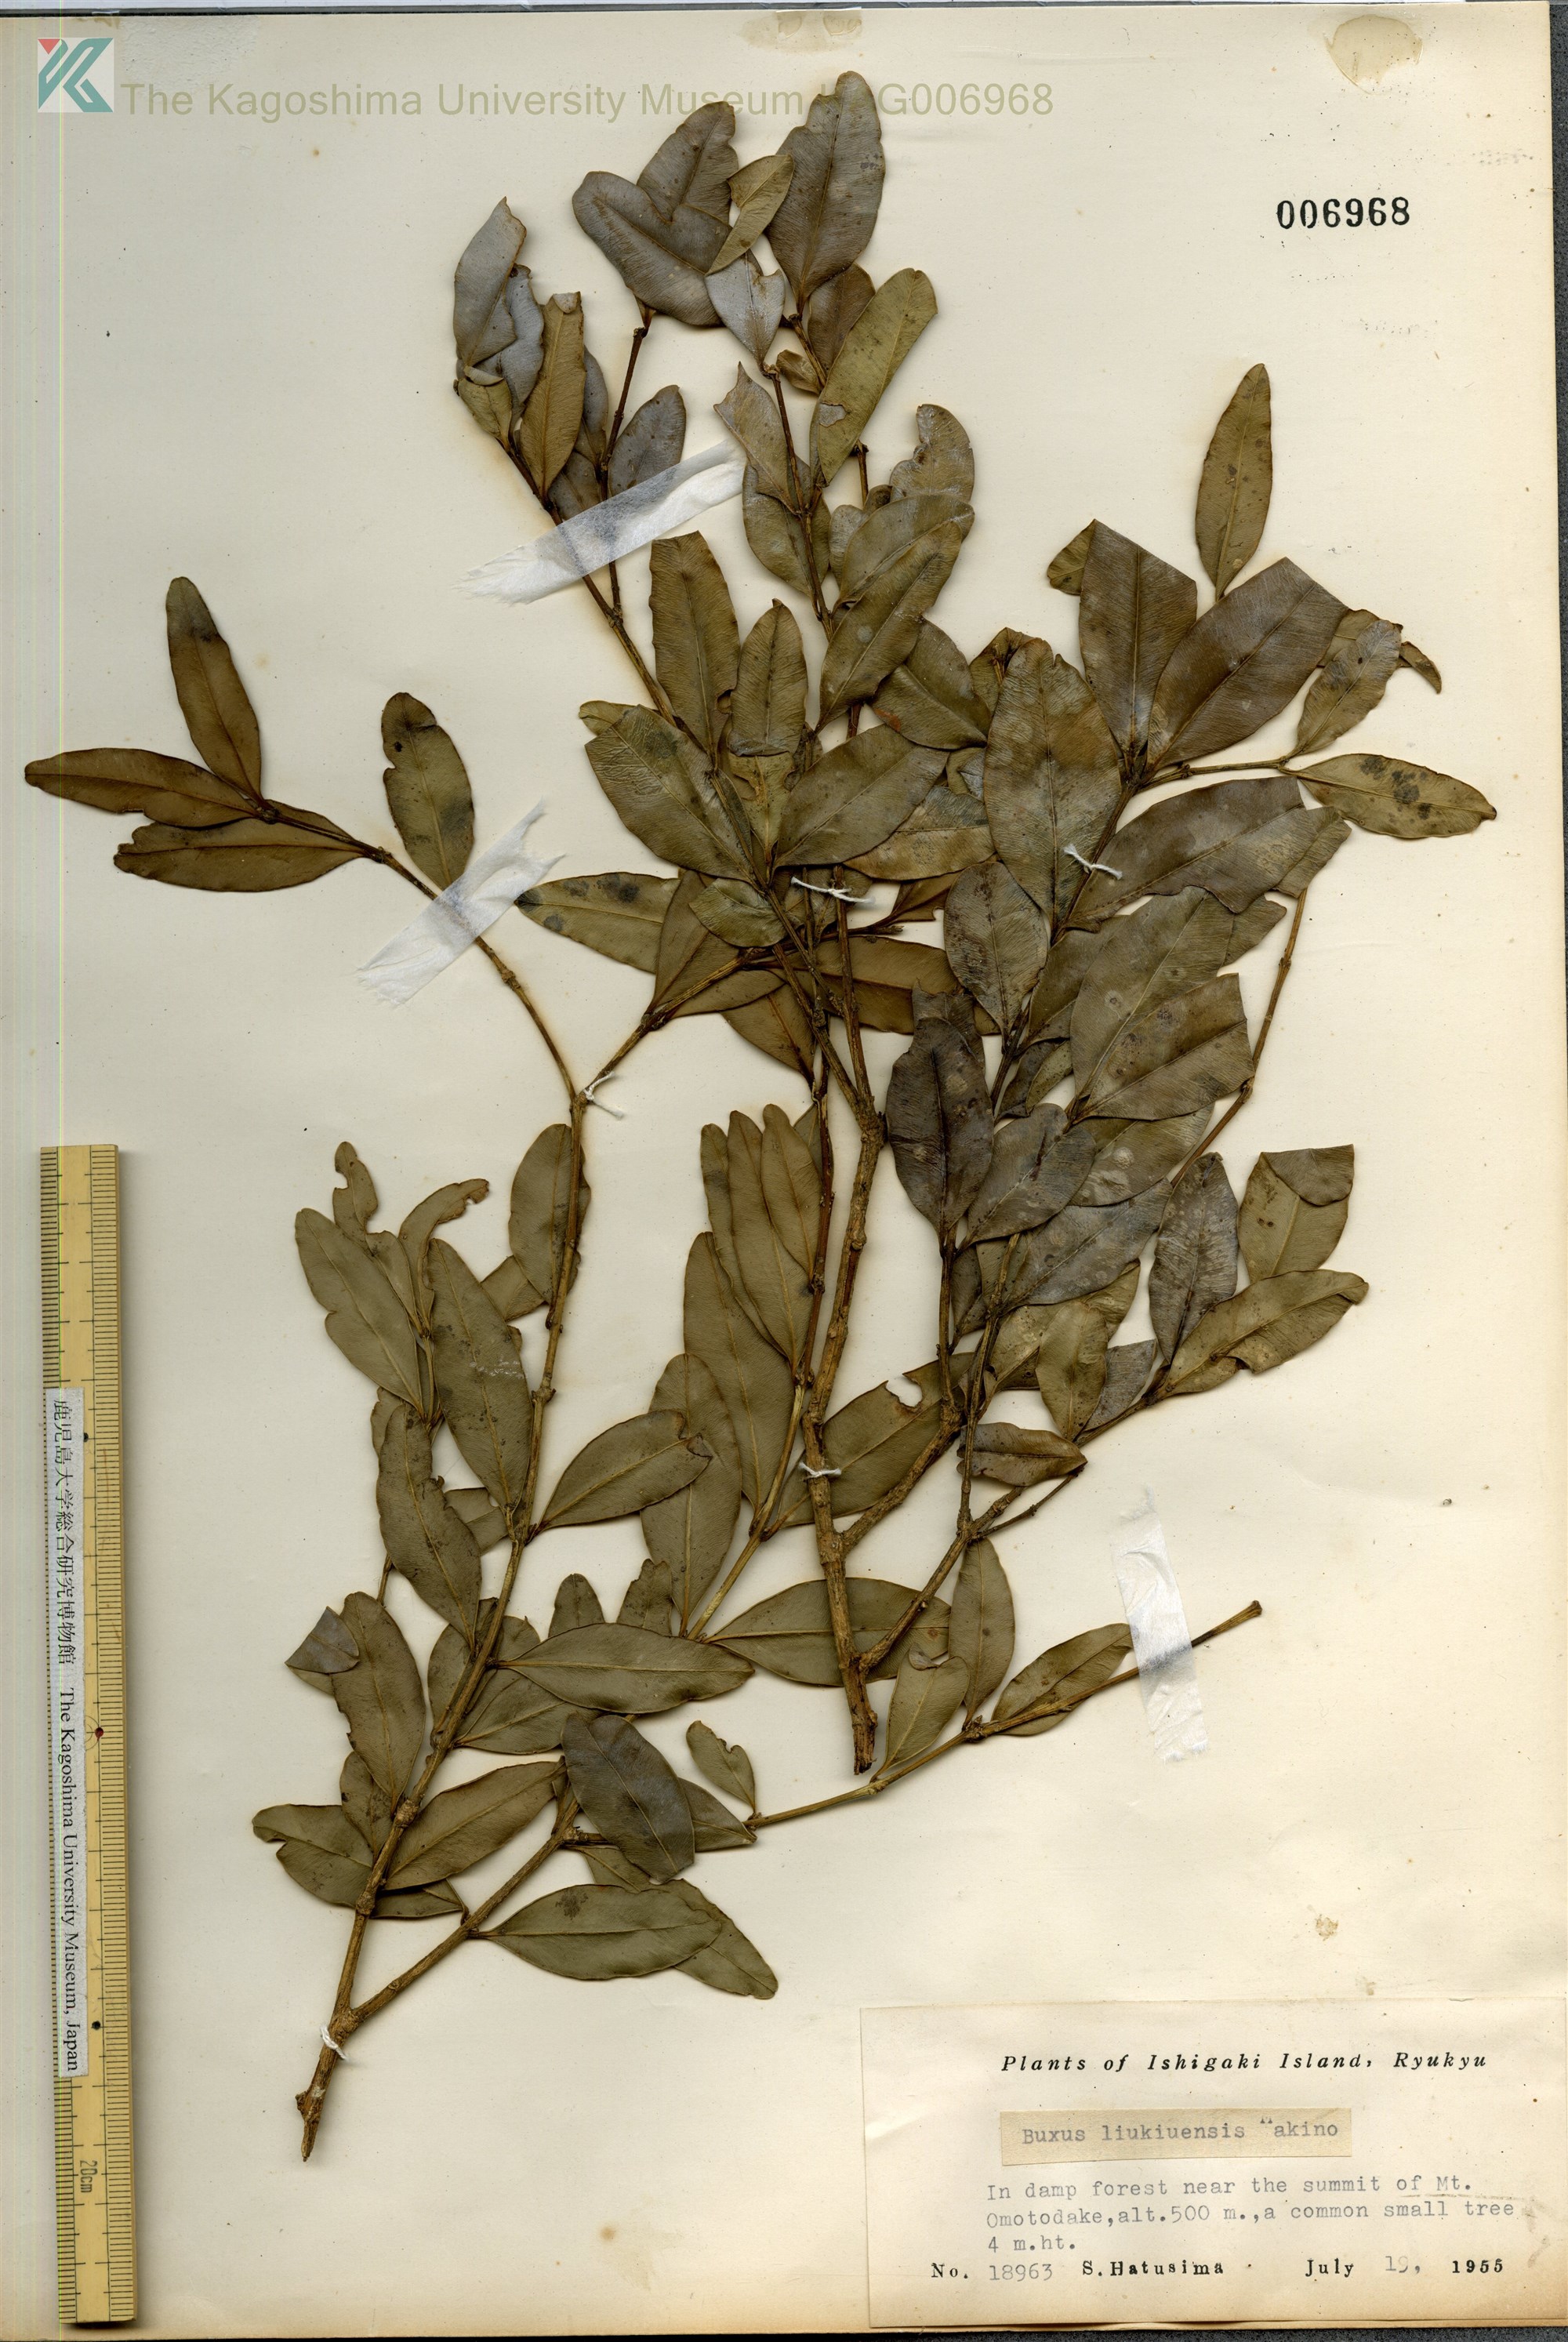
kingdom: Plantae
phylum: Tracheophyta
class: Magnoliopsida
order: Buxales
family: Buxaceae
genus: Buxus
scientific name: Buxus liukiuensis
